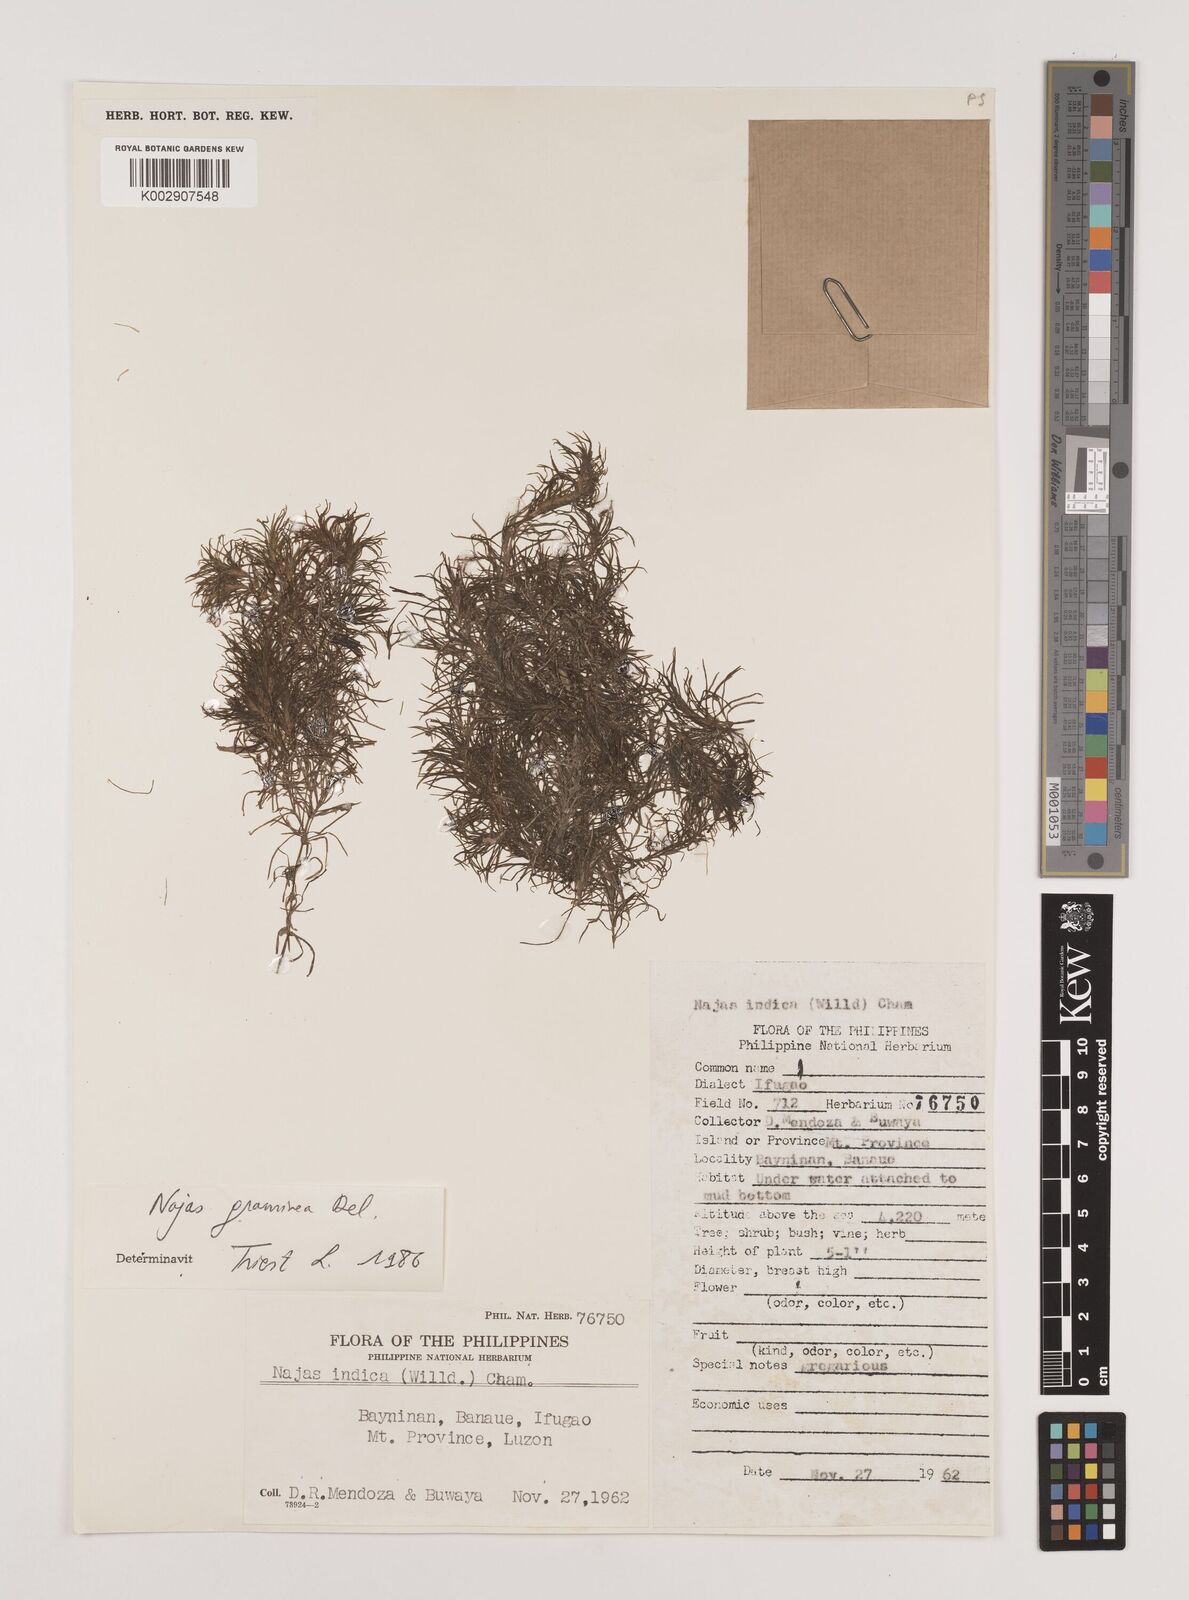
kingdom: Plantae
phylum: Tracheophyta
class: Liliopsida
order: Alismatales
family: Hydrocharitaceae
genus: Najas
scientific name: Najas graminea
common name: Ricefield waternymph
